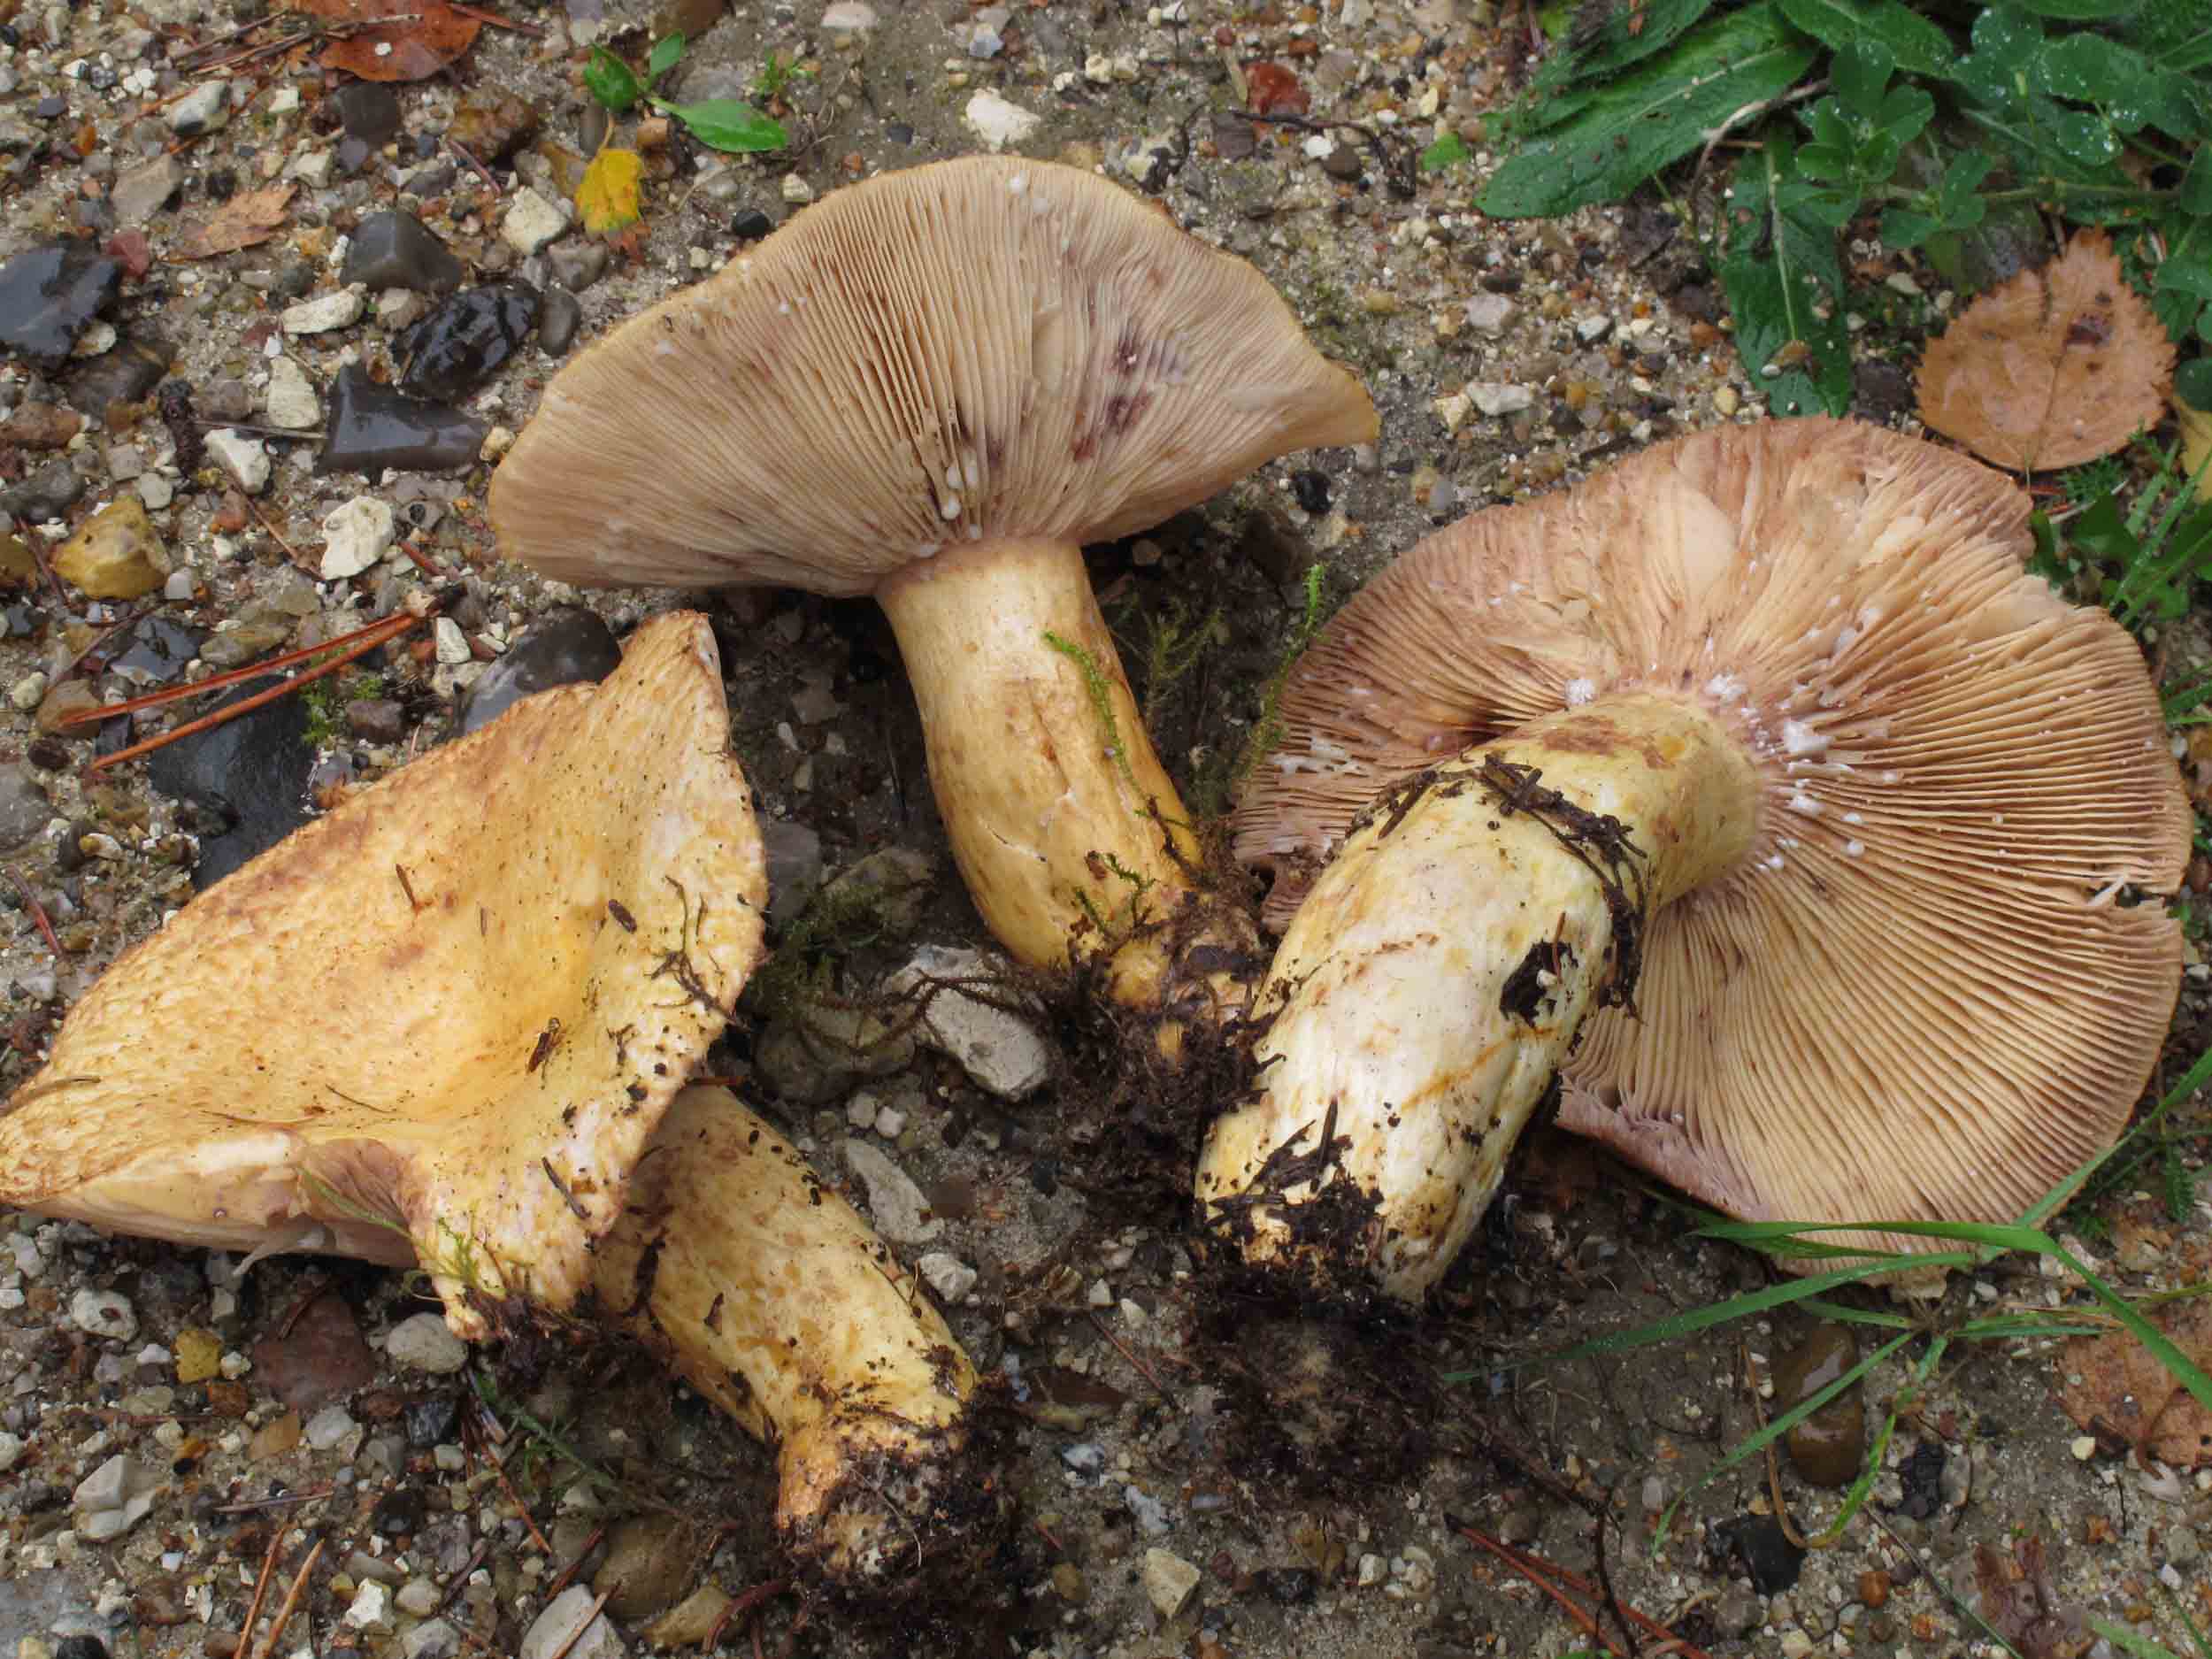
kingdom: Fungi
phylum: Basidiomycota
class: Agaricomycetes
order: Russulales
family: Russulaceae
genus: Lactarius
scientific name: Lactarius repraesentaneus
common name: prægtig mælkehat
